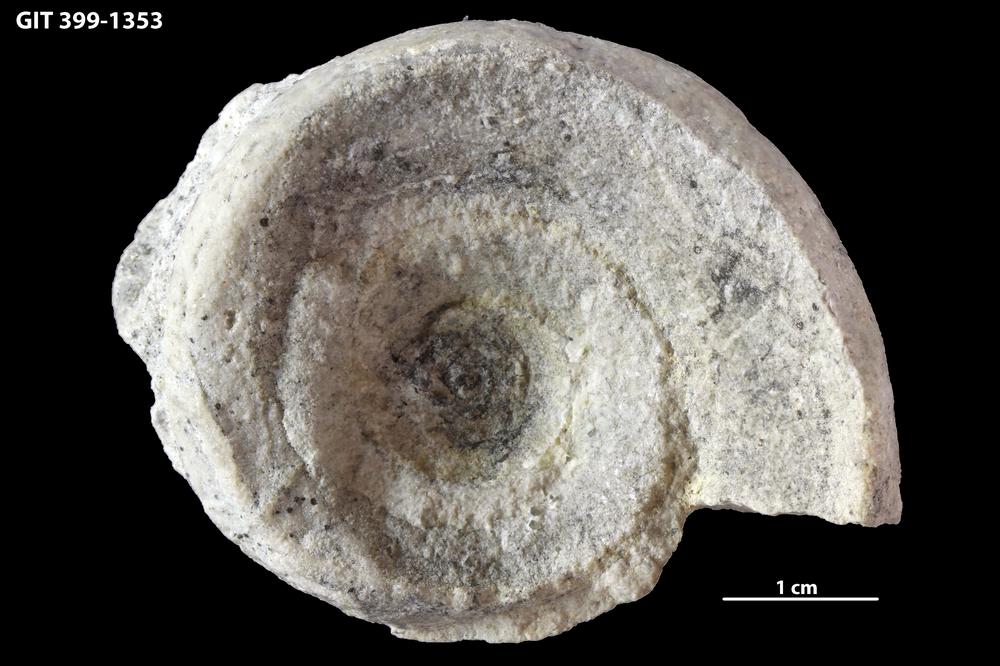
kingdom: Animalia
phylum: Mollusca
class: Gastropoda
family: Lesueurillidae
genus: Mestoronema
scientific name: Mestoronema Euomphalus marginalis
